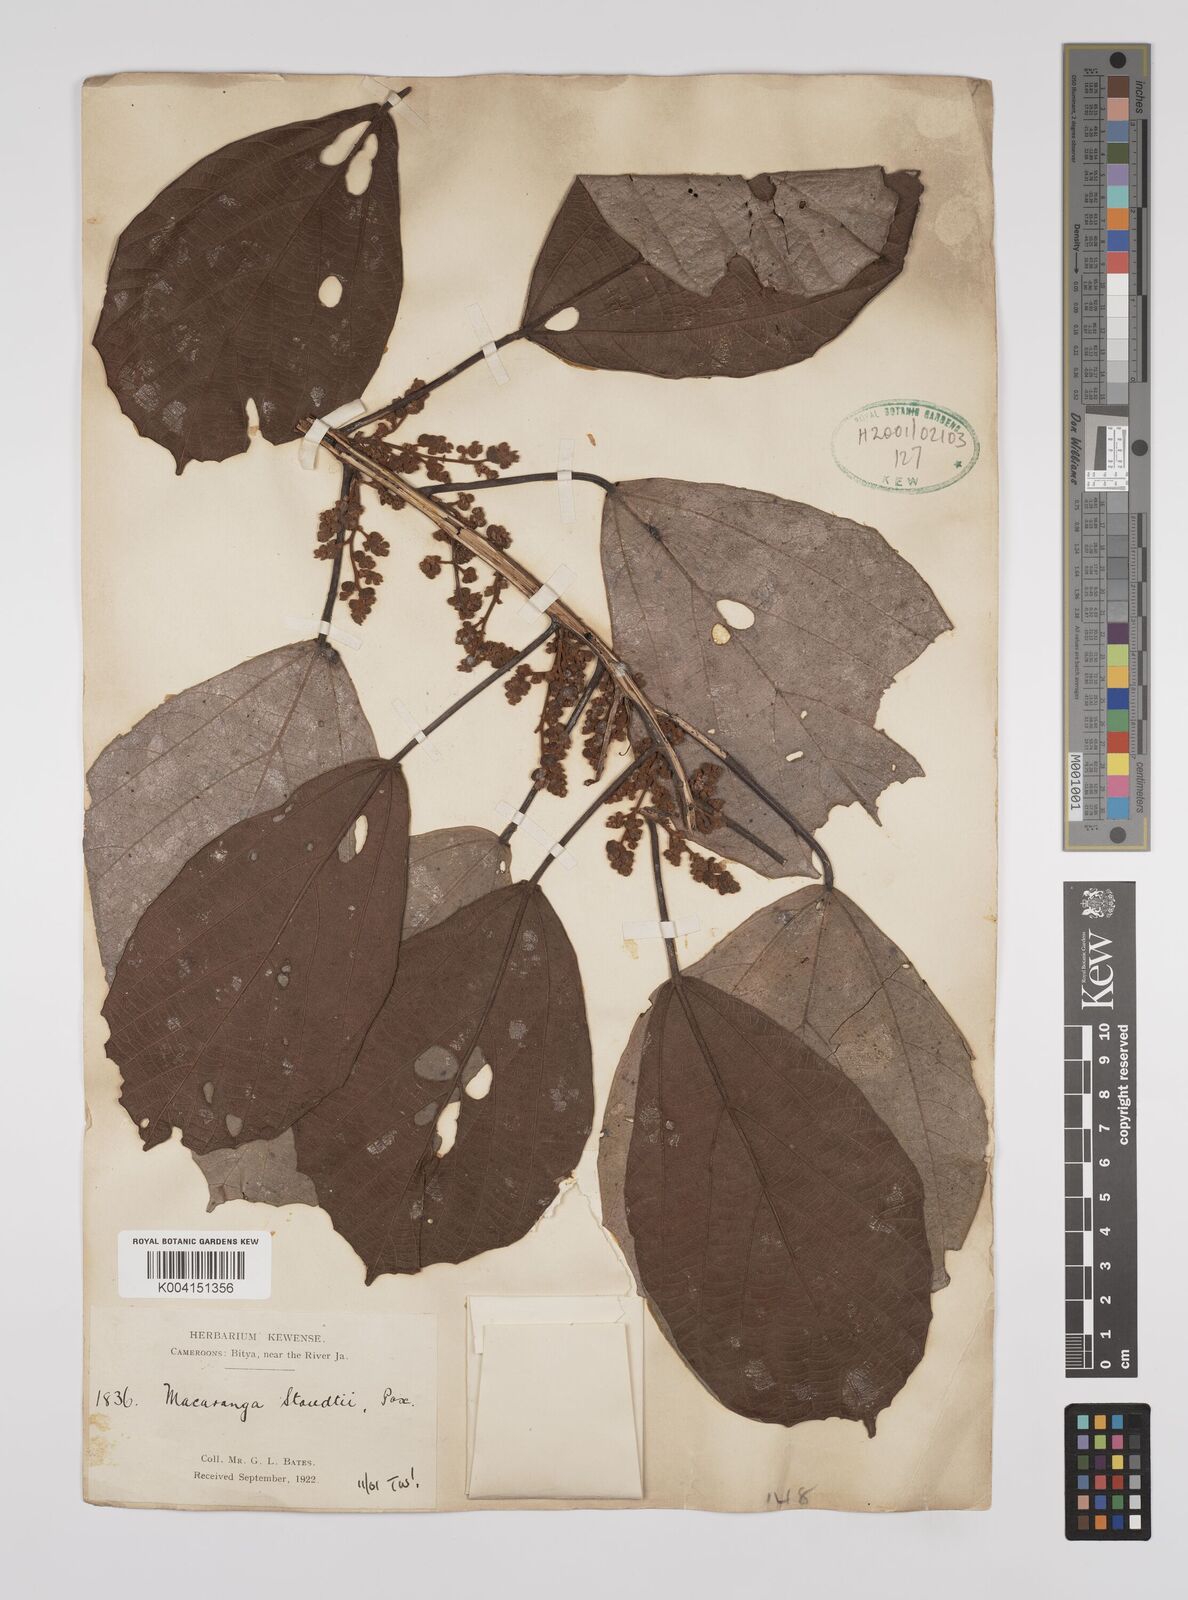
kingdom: Plantae
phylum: Tracheophyta
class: Magnoliopsida
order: Malpighiales
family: Euphorbiaceae
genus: Macaranga
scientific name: Macaranga staudtii
